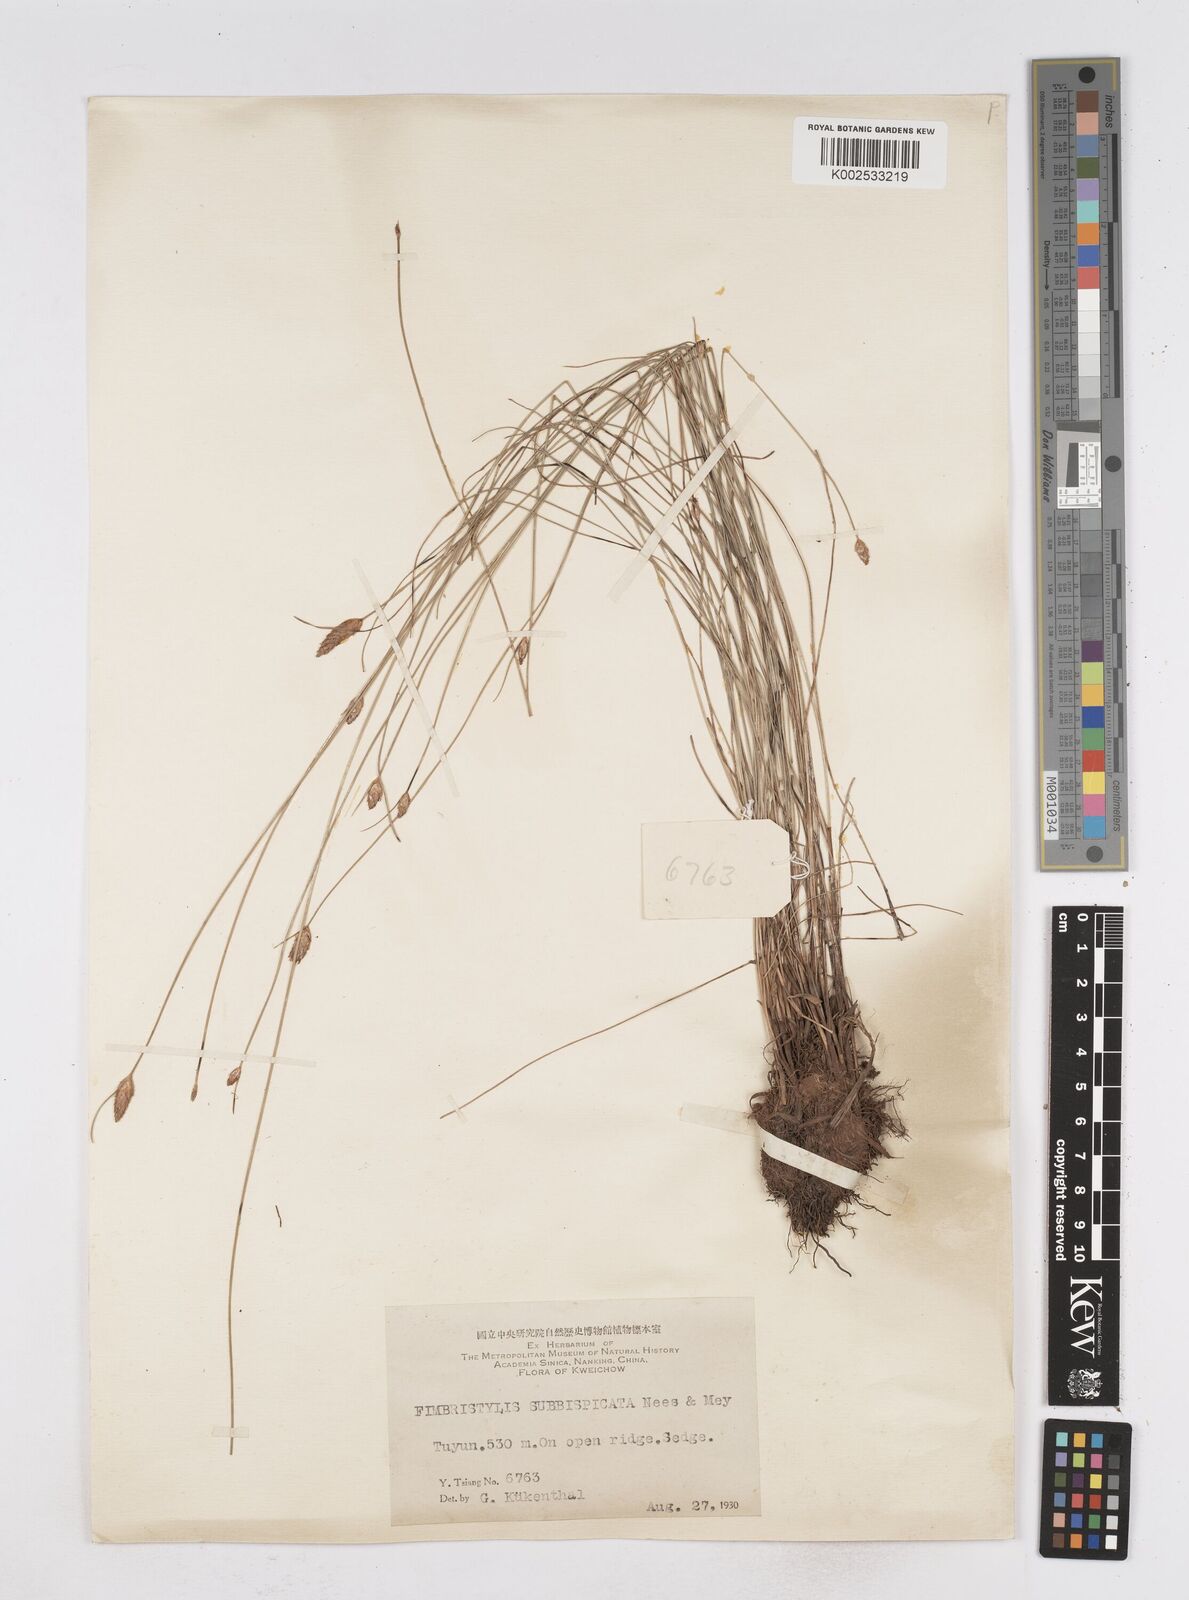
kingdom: Plantae
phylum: Tracheophyta
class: Liliopsida
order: Poales
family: Cyperaceae
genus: Fimbristylis
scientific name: Fimbristylis tristachya
